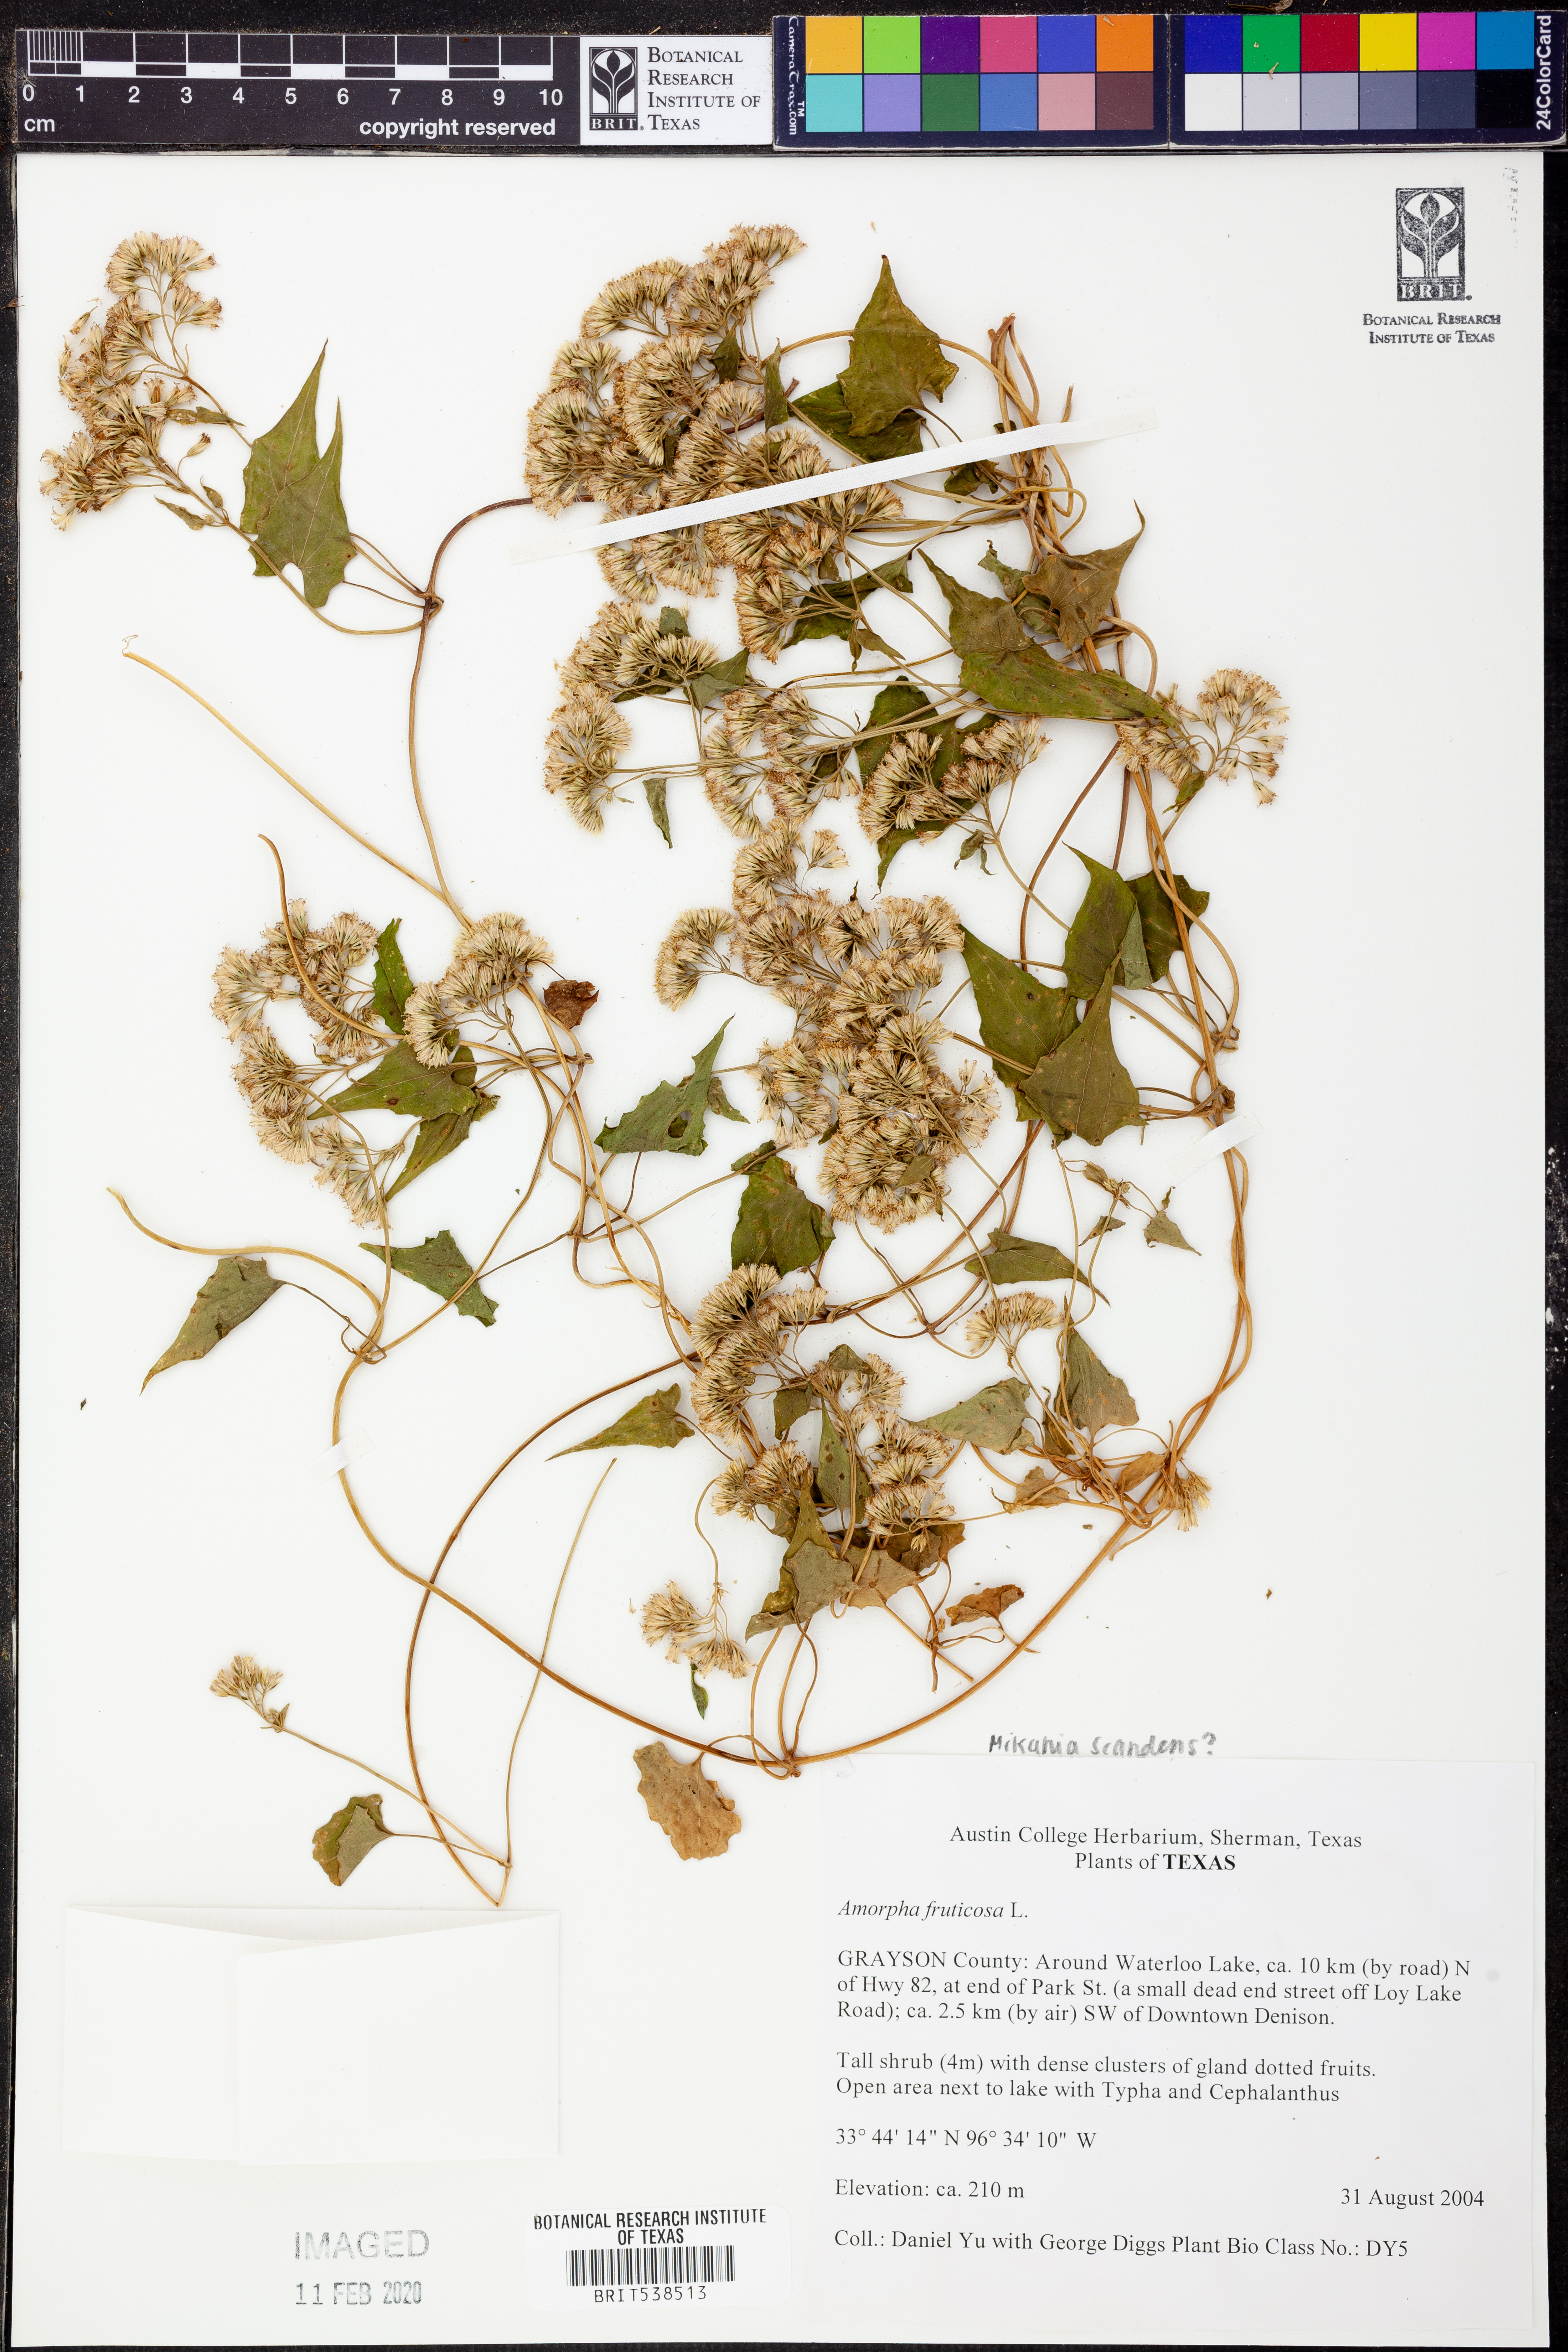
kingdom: Plantae
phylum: Tracheophyta
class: Magnoliopsida
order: Asterales
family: Asteraceae
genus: Mikania
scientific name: Mikania scandens
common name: Climbing hempvine
